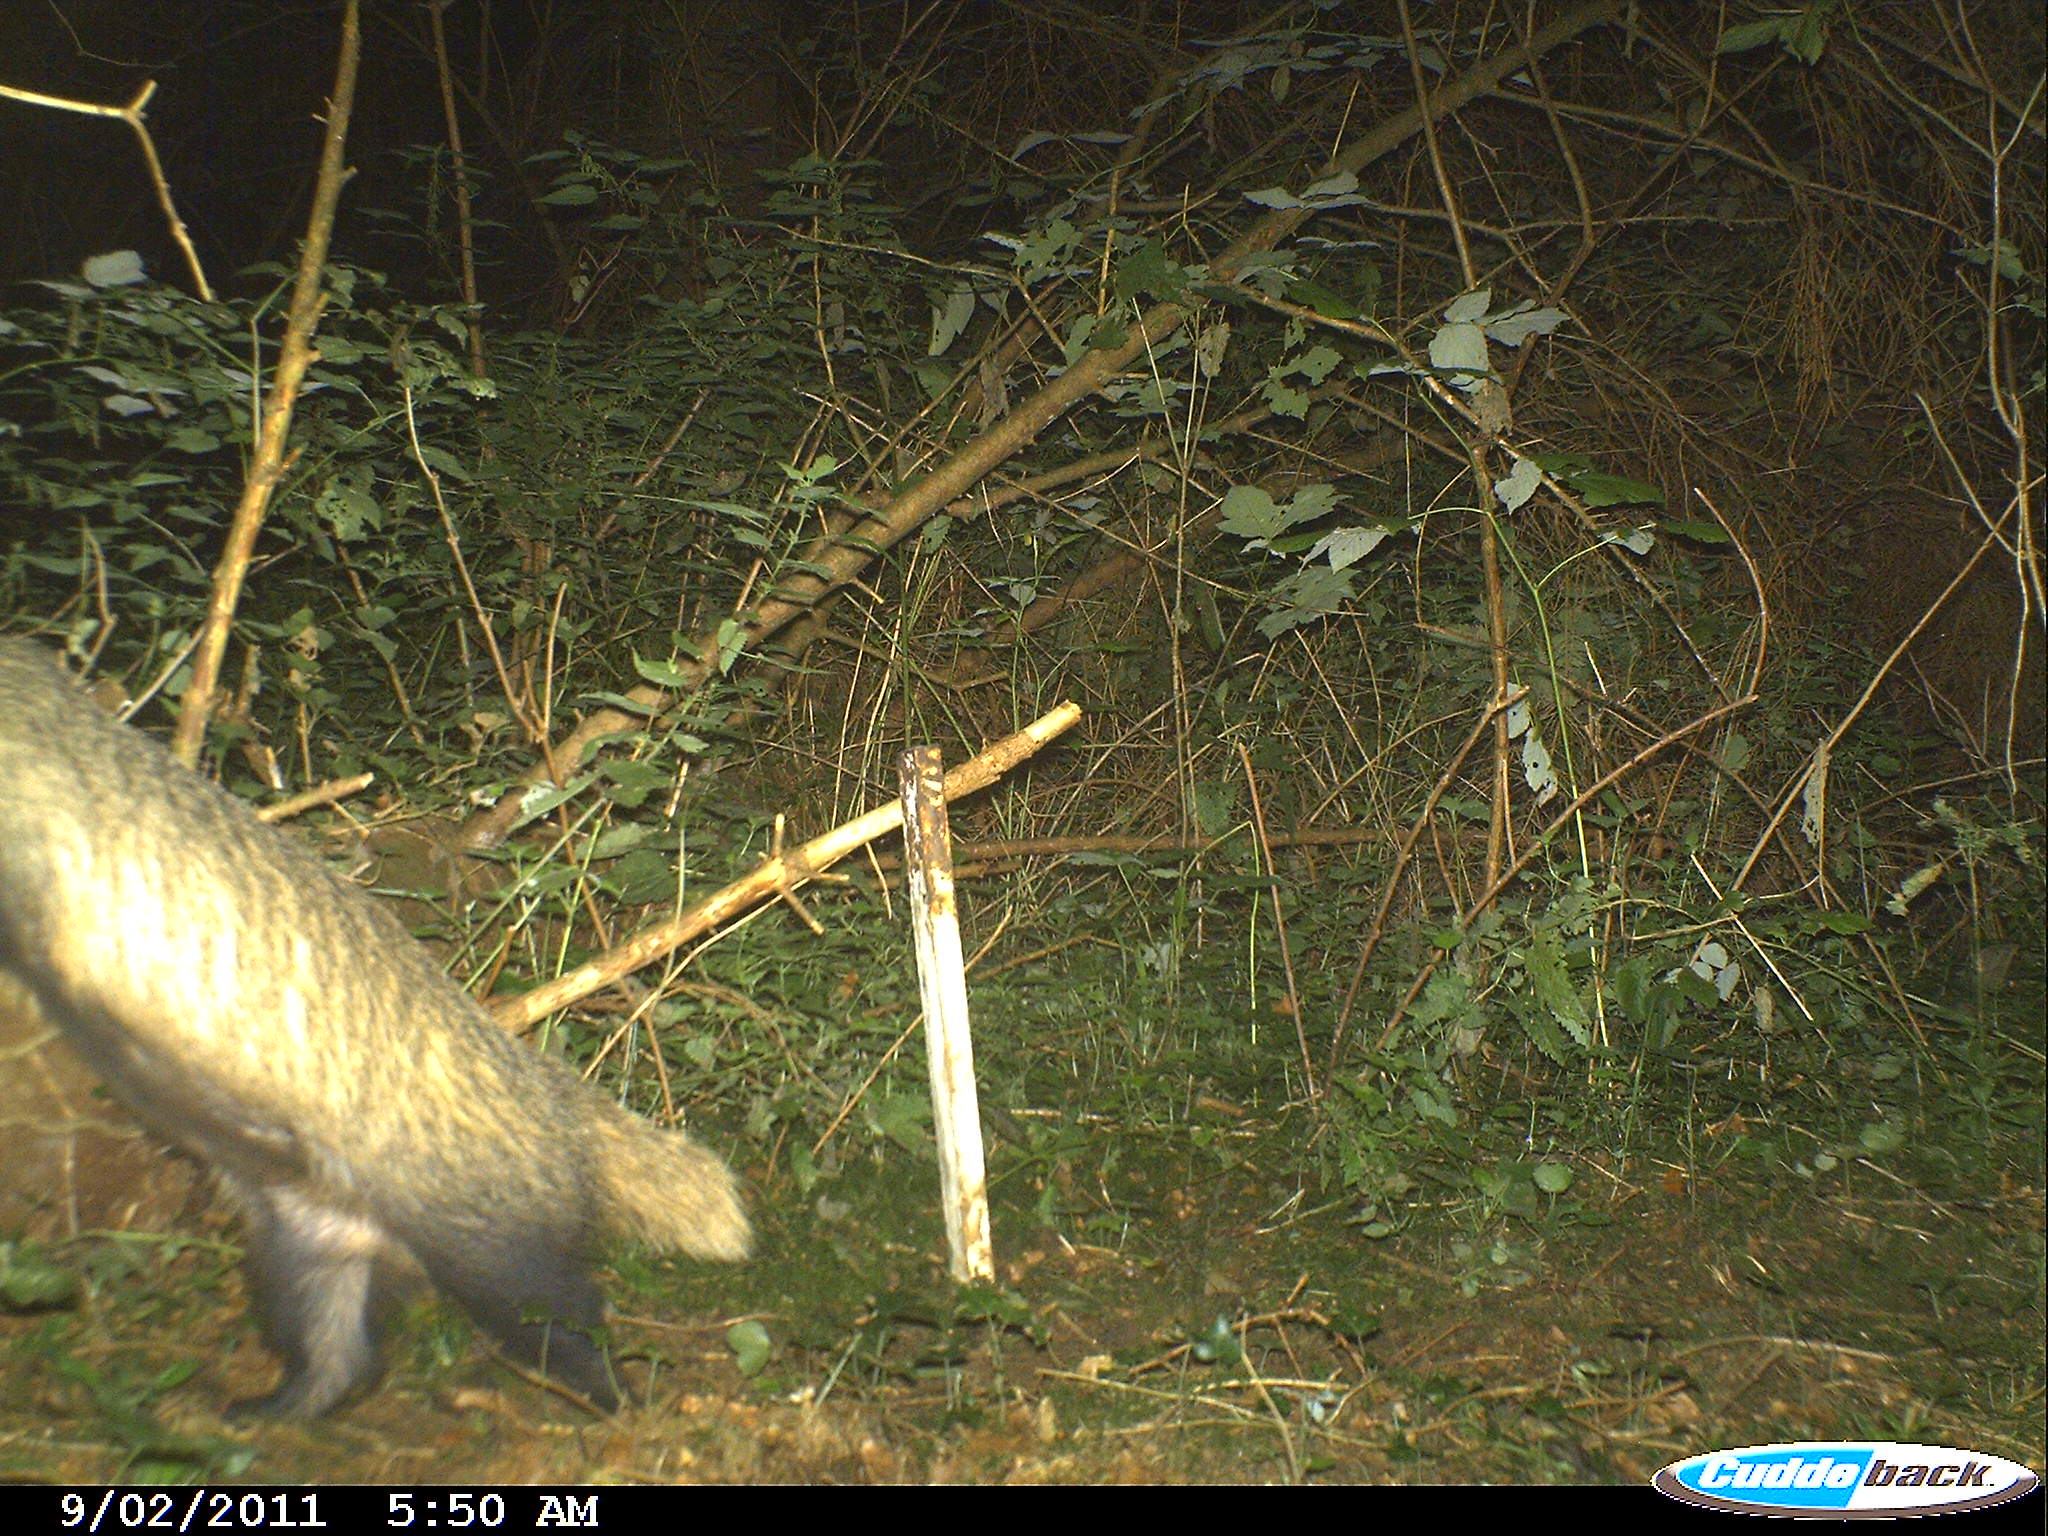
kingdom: Animalia
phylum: Chordata
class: Mammalia
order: Carnivora
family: Mustelidae
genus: Meles
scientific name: Meles meles
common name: Eurasian badger
